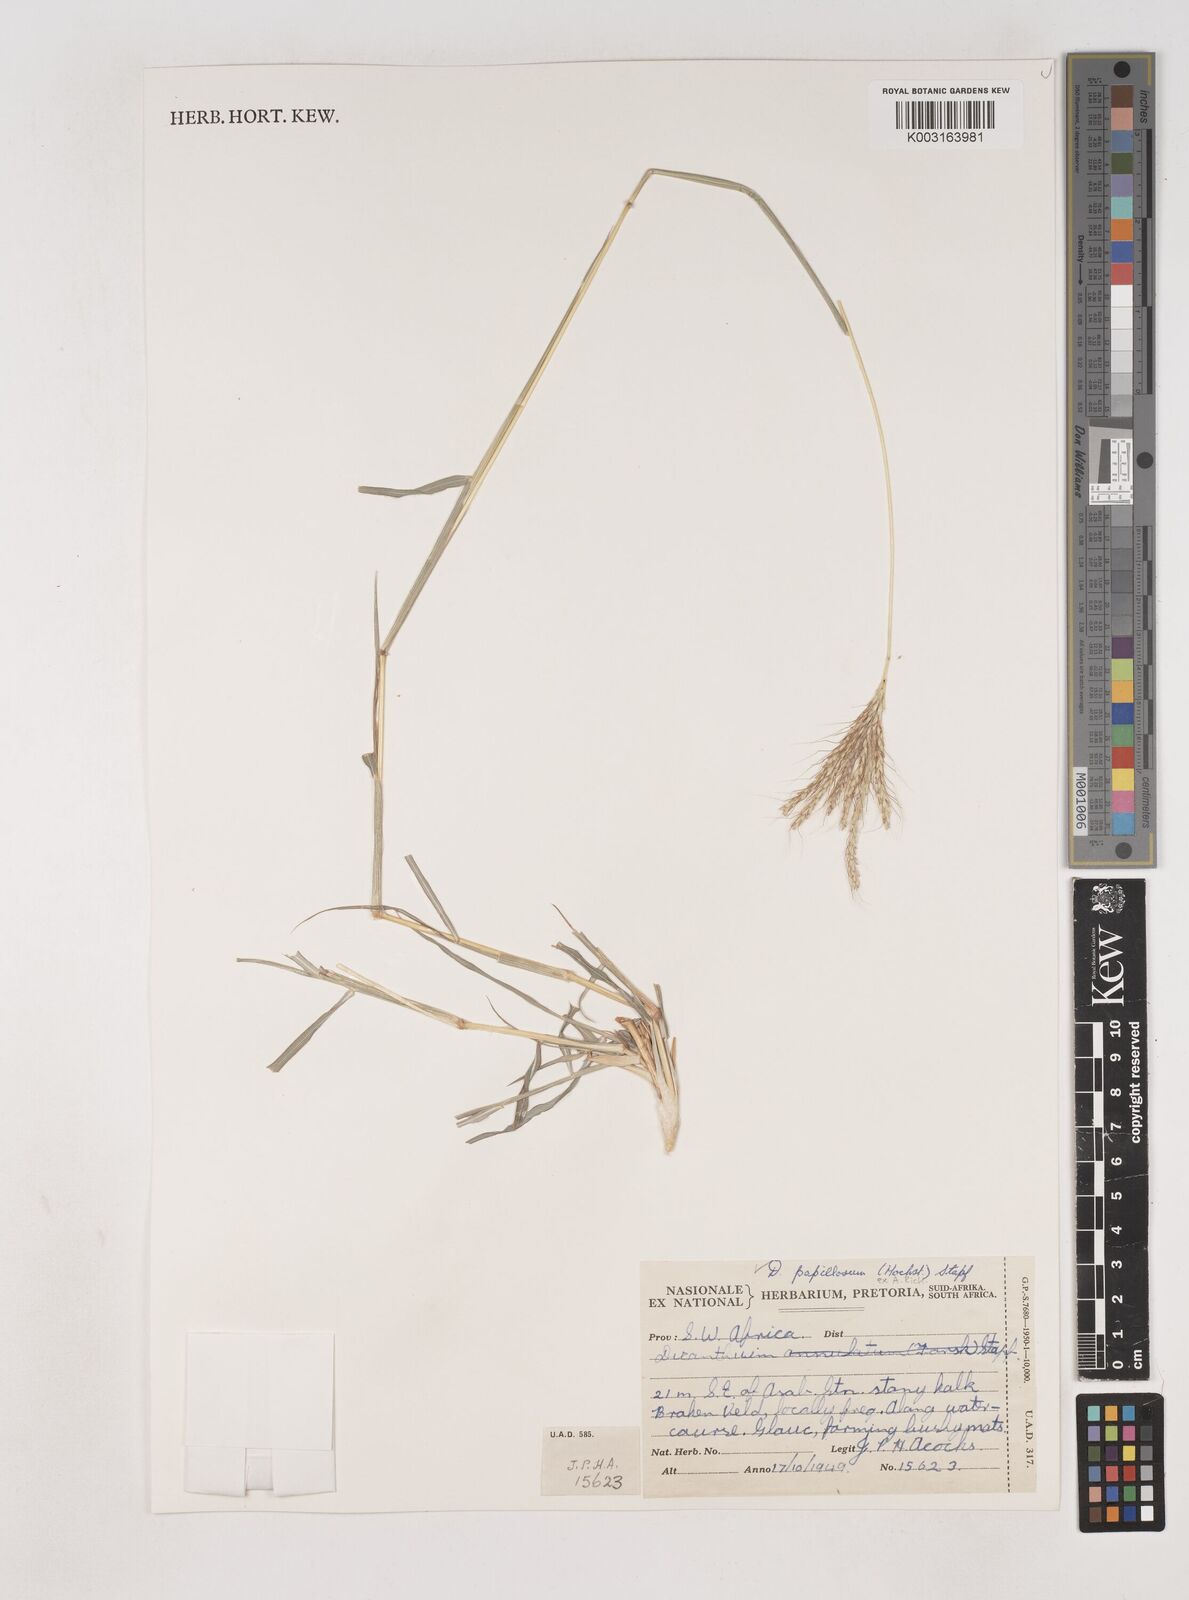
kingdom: Plantae
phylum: Tracheophyta
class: Liliopsida
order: Poales
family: Poaceae
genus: Dichanthium
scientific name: Dichanthium annulatum
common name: Kleberg's bluestem
